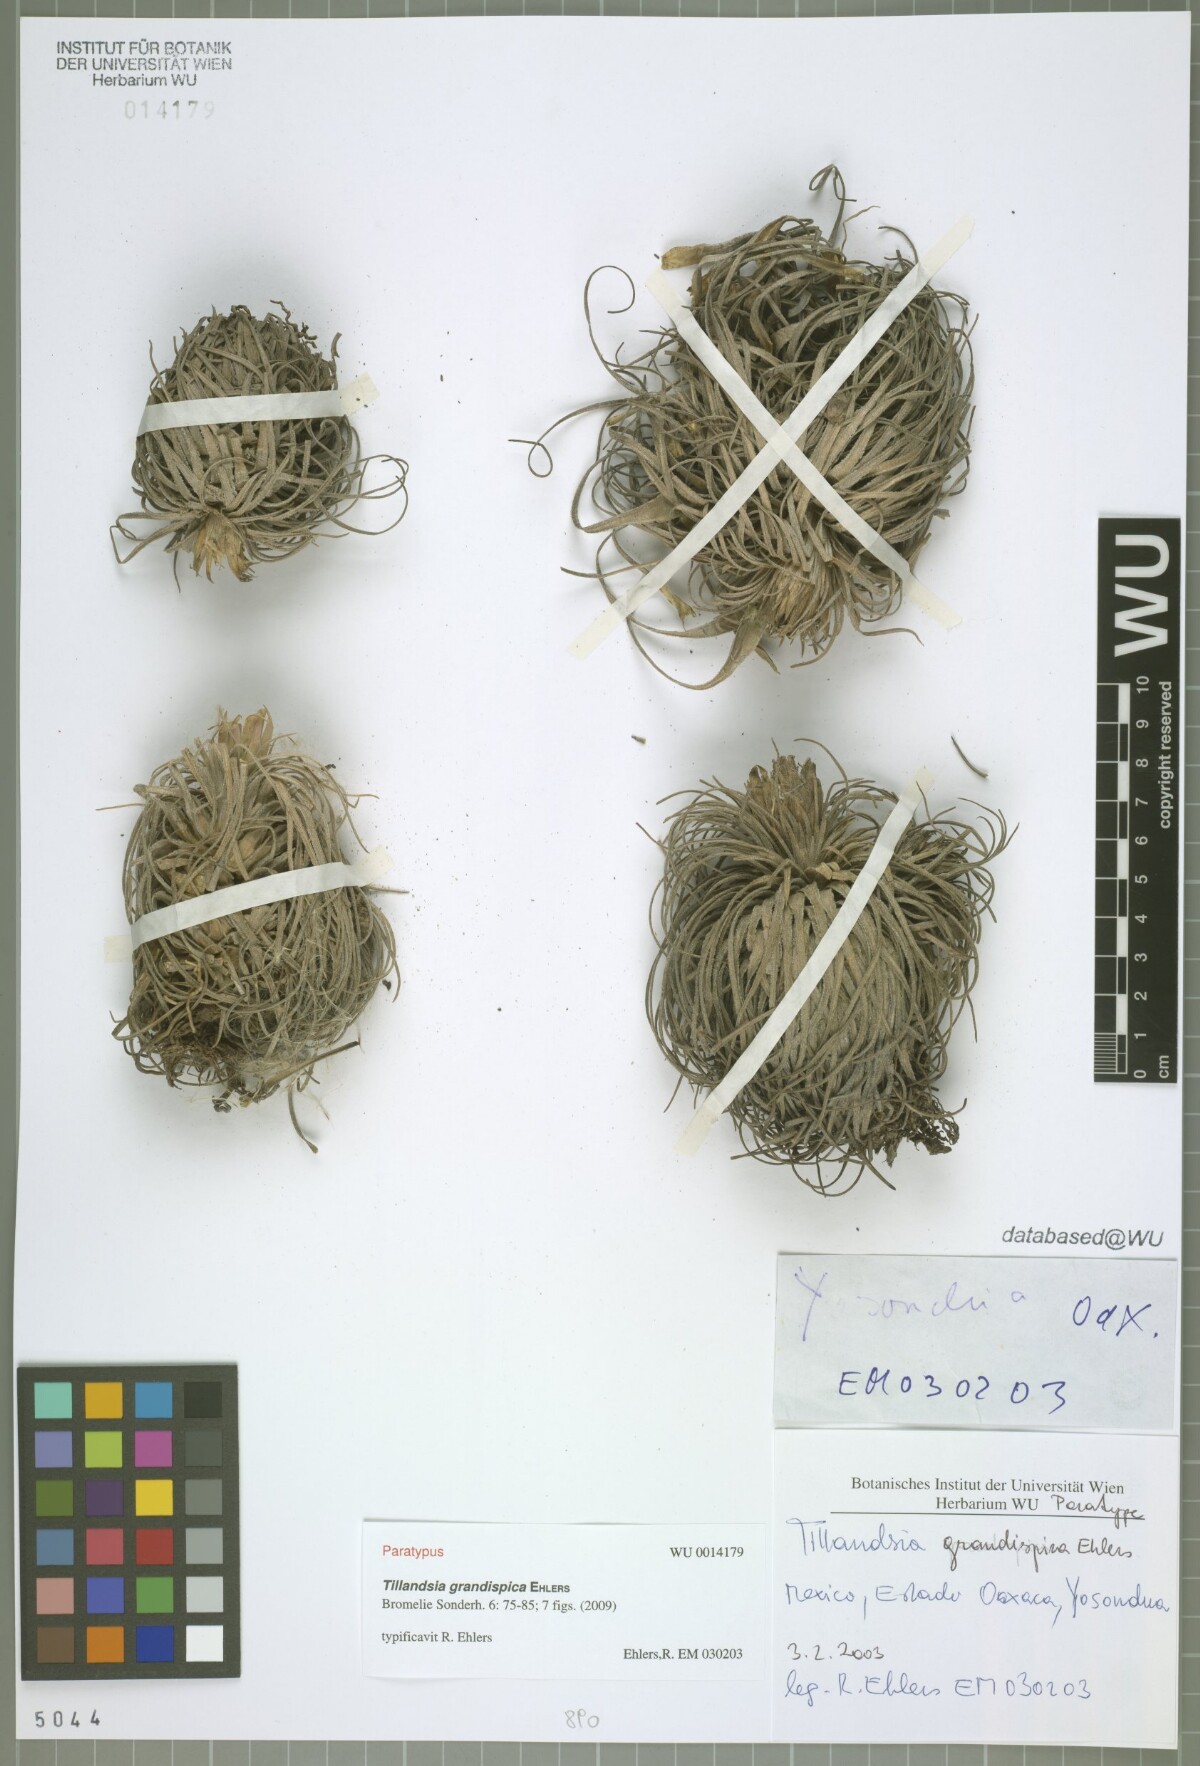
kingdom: Plantae
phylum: Tracheophyta
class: Liliopsida
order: Poales
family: Bromeliaceae
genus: Tillandsia
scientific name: Tillandsia grandispica
